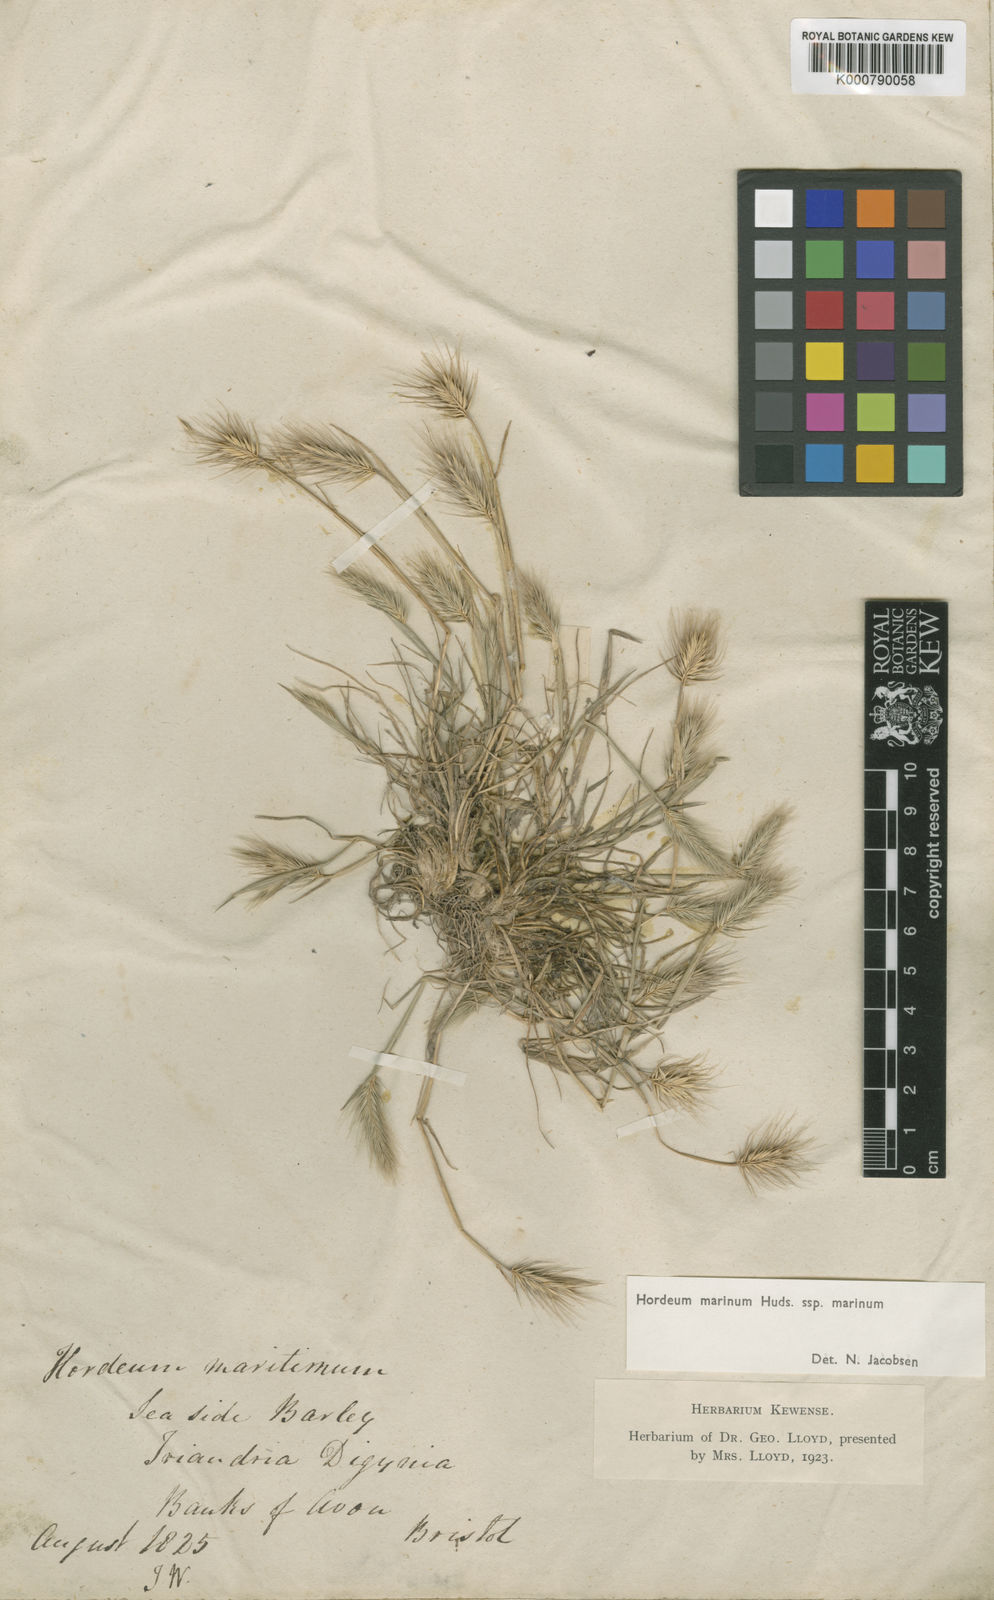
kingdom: Plantae
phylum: Tracheophyta
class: Liliopsida
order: Poales
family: Poaceae
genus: Hordeum
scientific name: Hordeum marinum
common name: Sea barley
